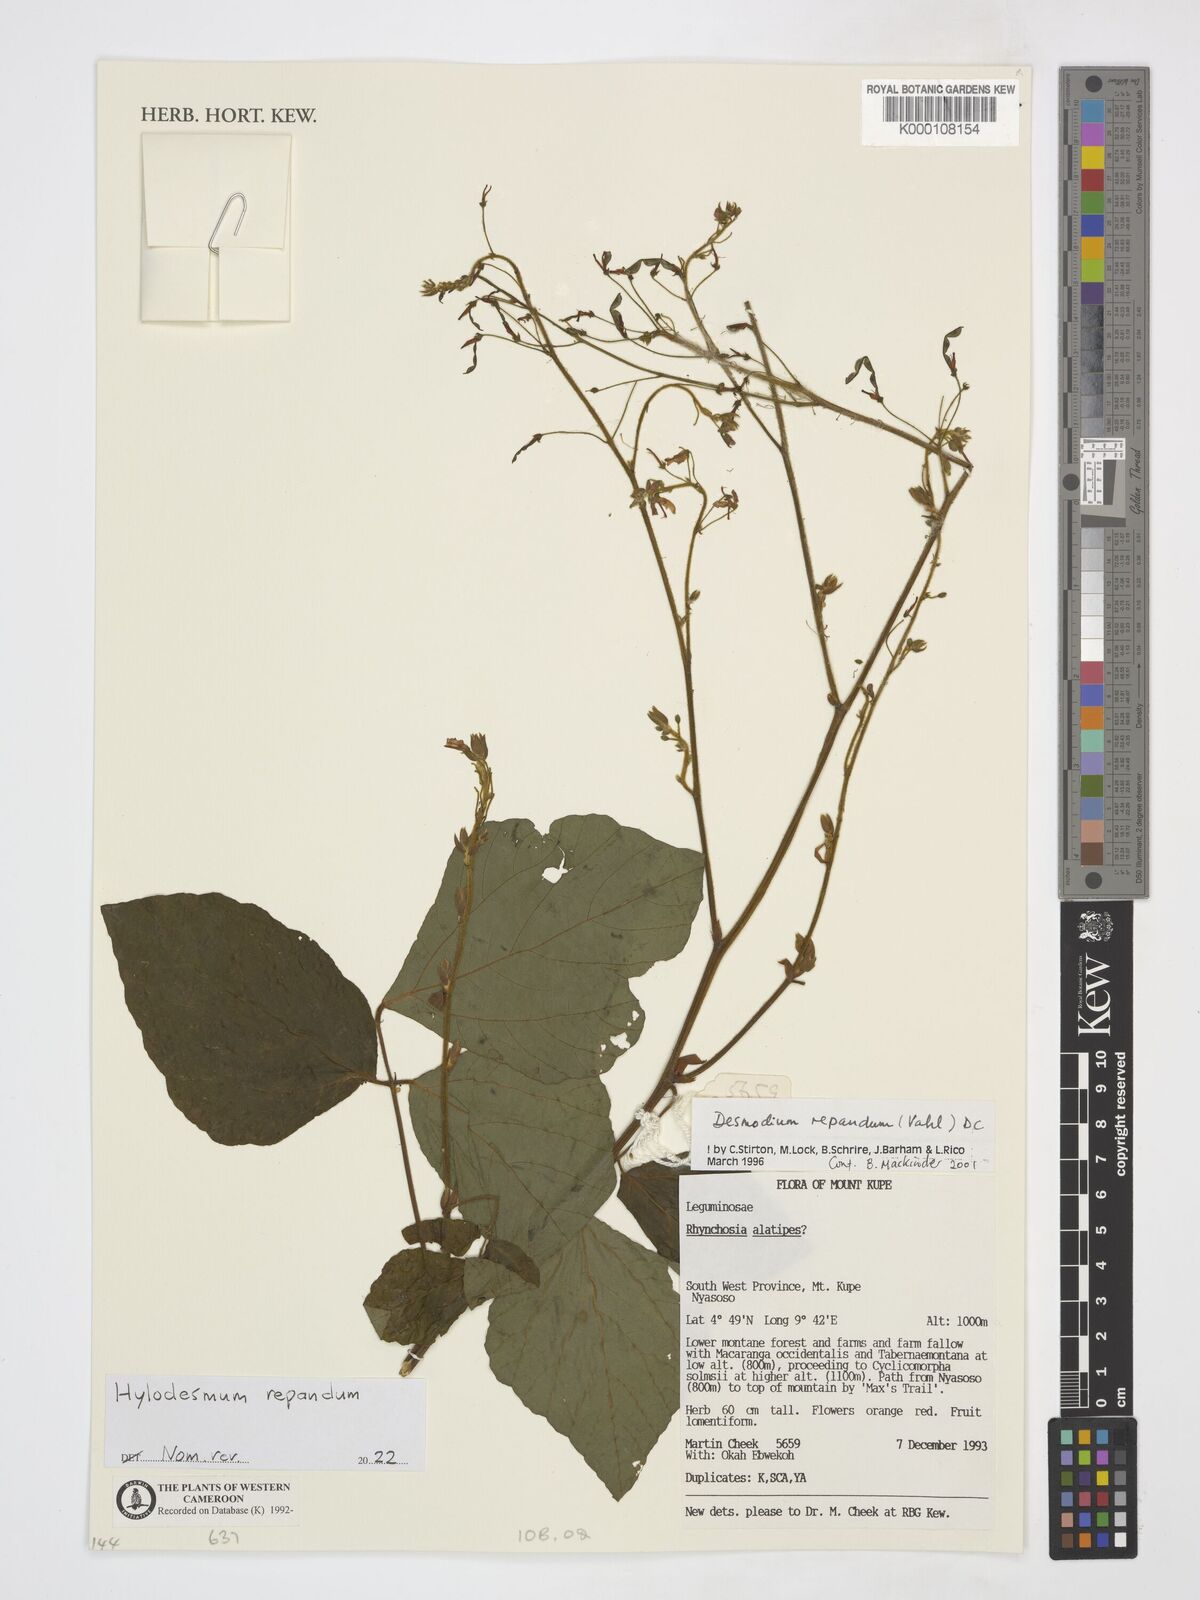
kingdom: Plantae
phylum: Tracheophyta
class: Magnoliopsida
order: Fabales
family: Fabaceae
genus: Desmodium
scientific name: Desmodium
